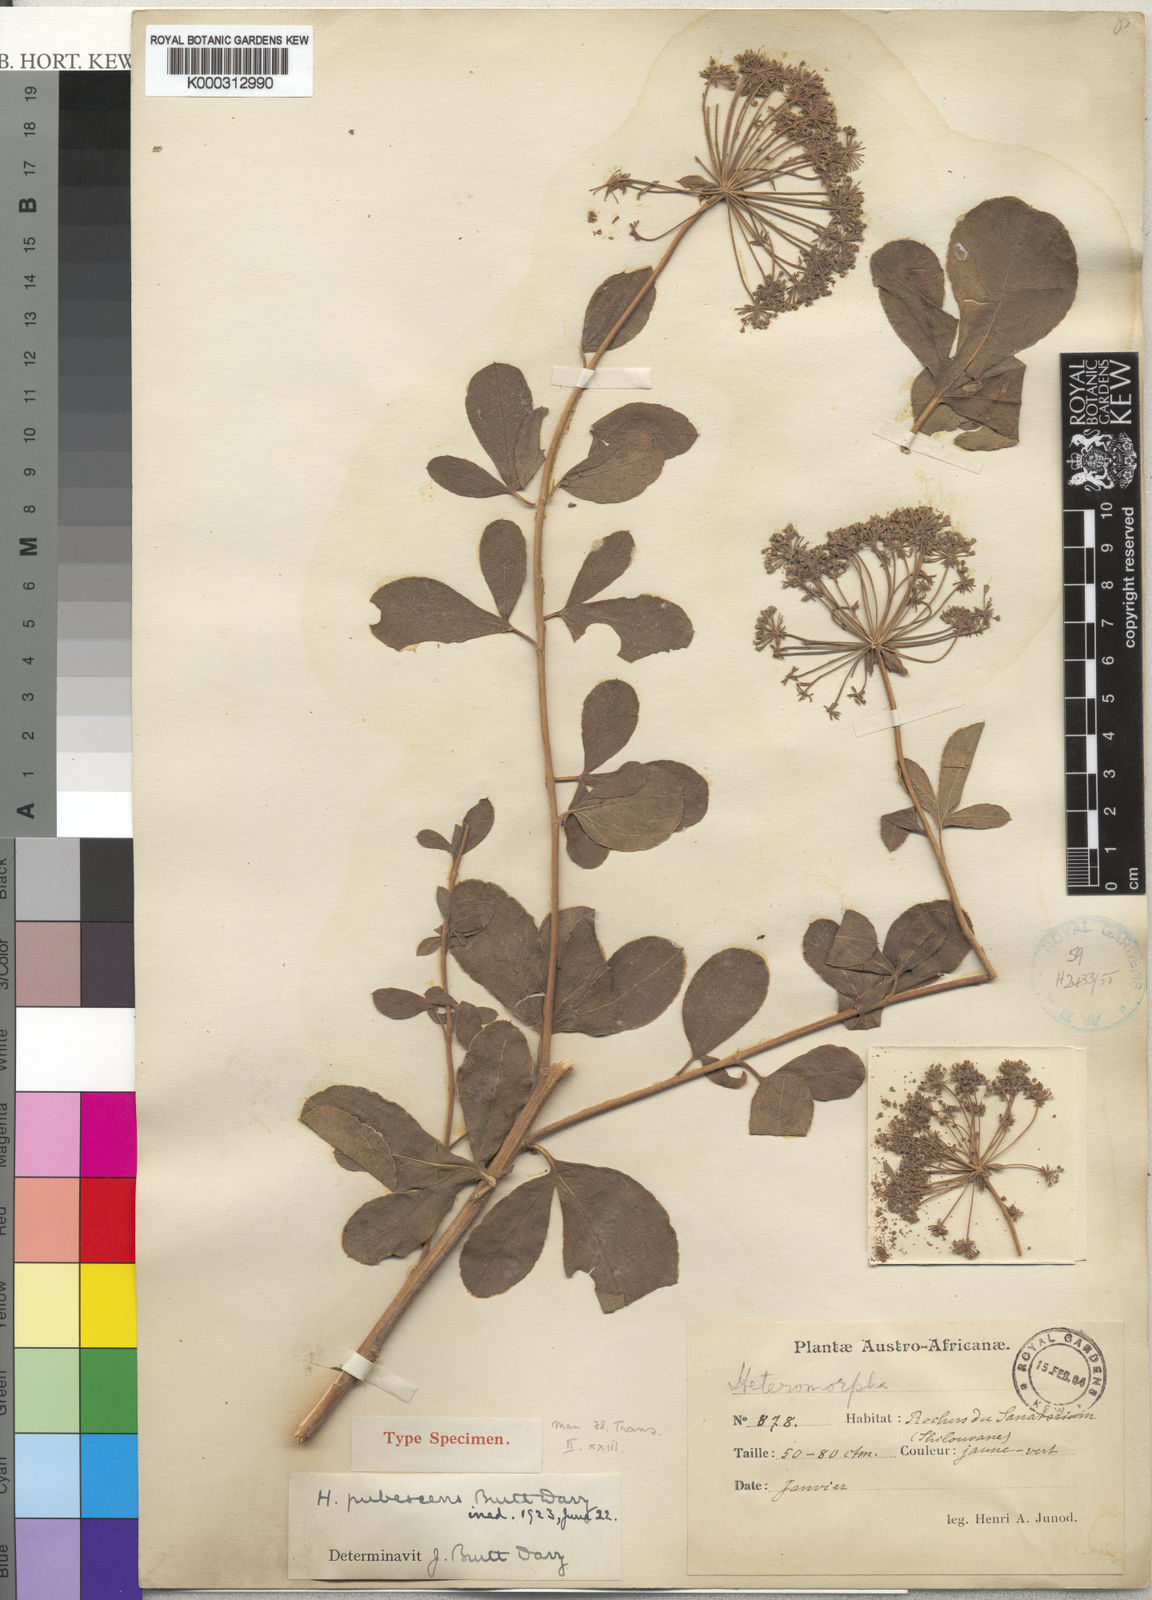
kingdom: Plantae
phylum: Tracheophyta
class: Magnoliopsida
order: Apiales
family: Apiaceae
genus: Heteromorpha
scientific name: Heteromorpha pubescens
